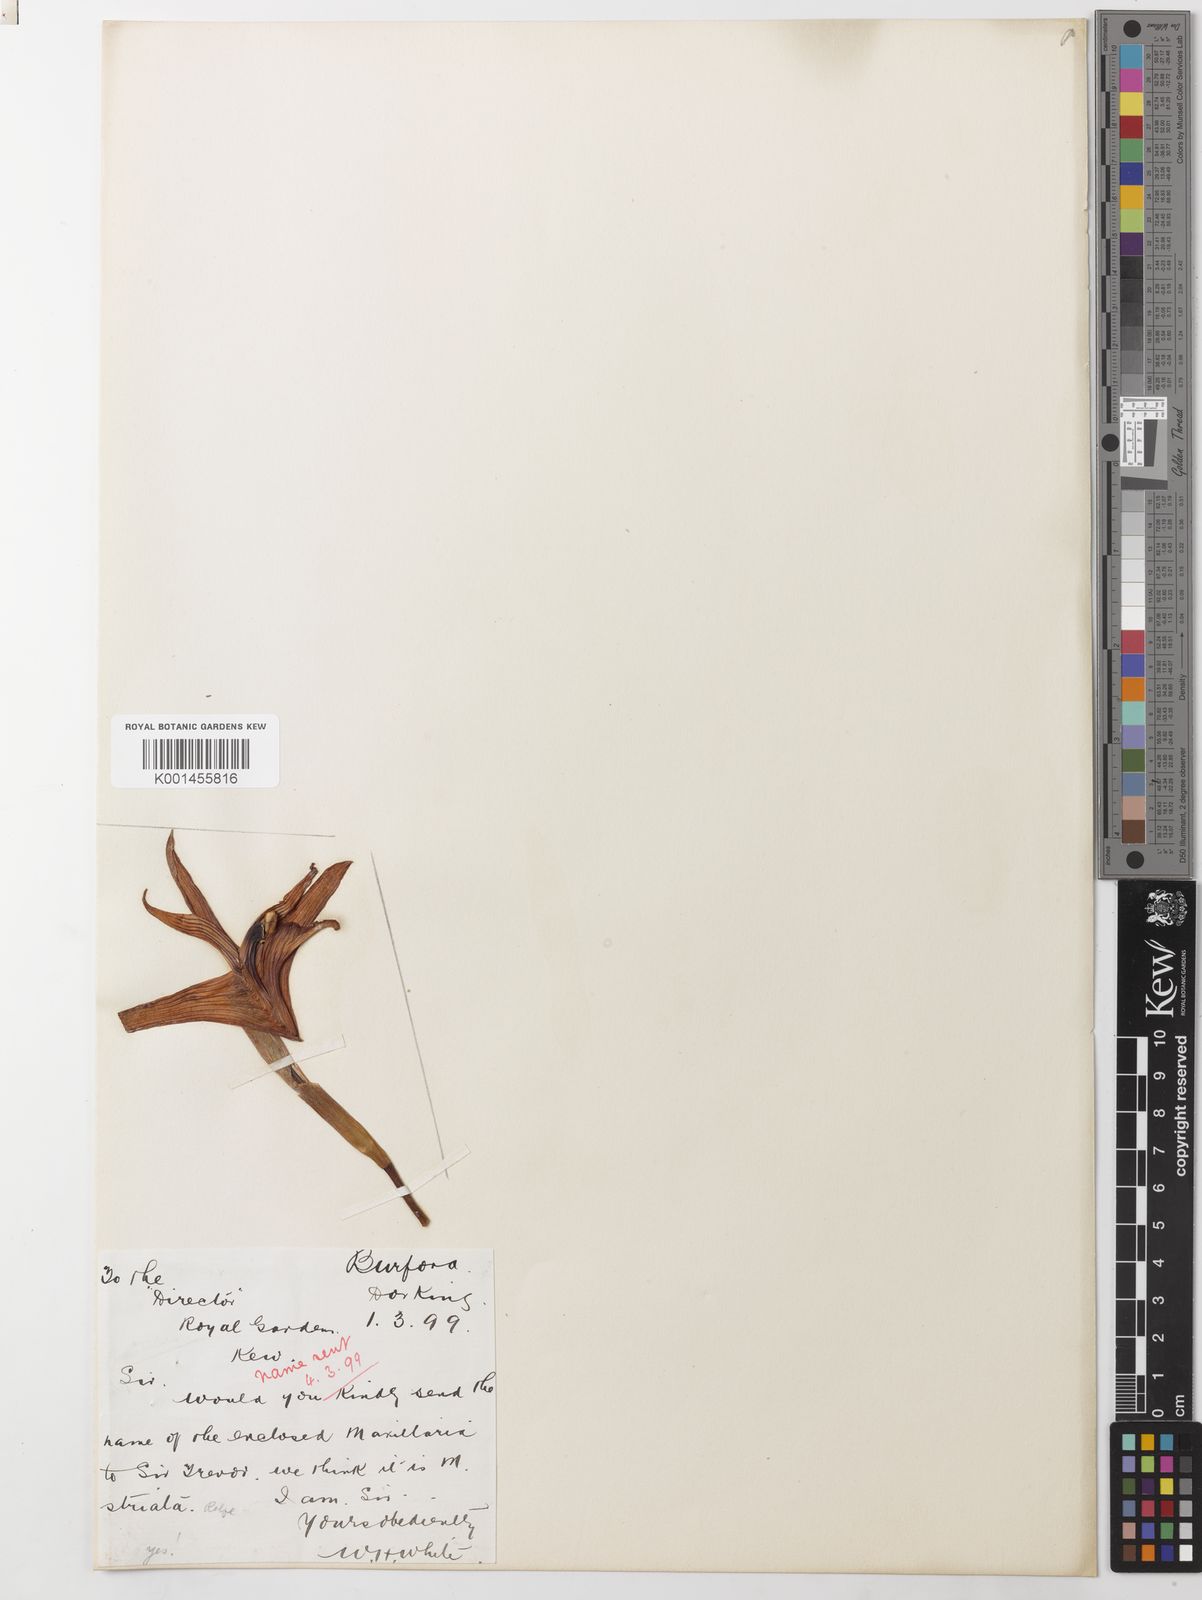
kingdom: Plantae
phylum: Tracheophyta
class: Liliopsida
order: Asparagales
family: Orchidaceae
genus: Maxillaria
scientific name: Maxillaria striata
